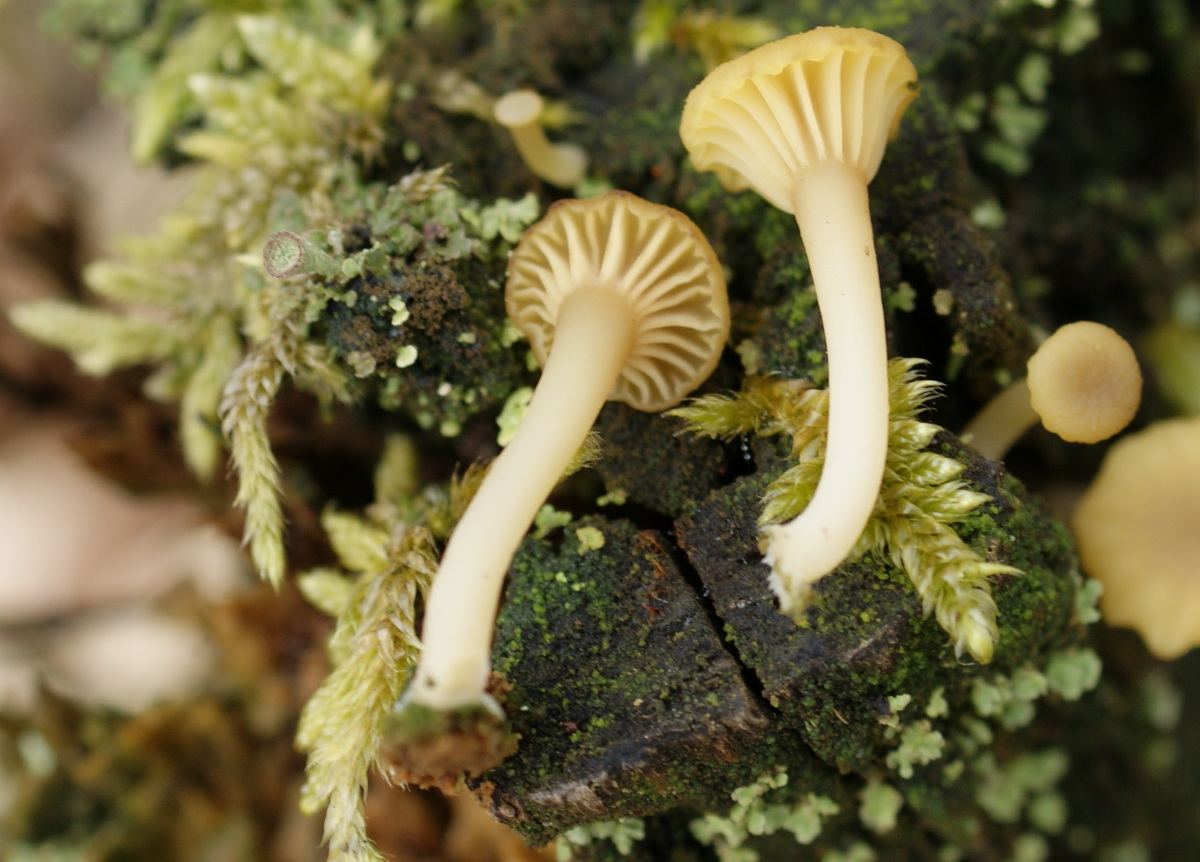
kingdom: Fungi
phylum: Basidiomycota
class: Agaricomycetes
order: Agaricales
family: Hygrophoraceae
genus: Lichenomphalia
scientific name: Lichenomphalia umbellifera
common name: tørve-lavhat
